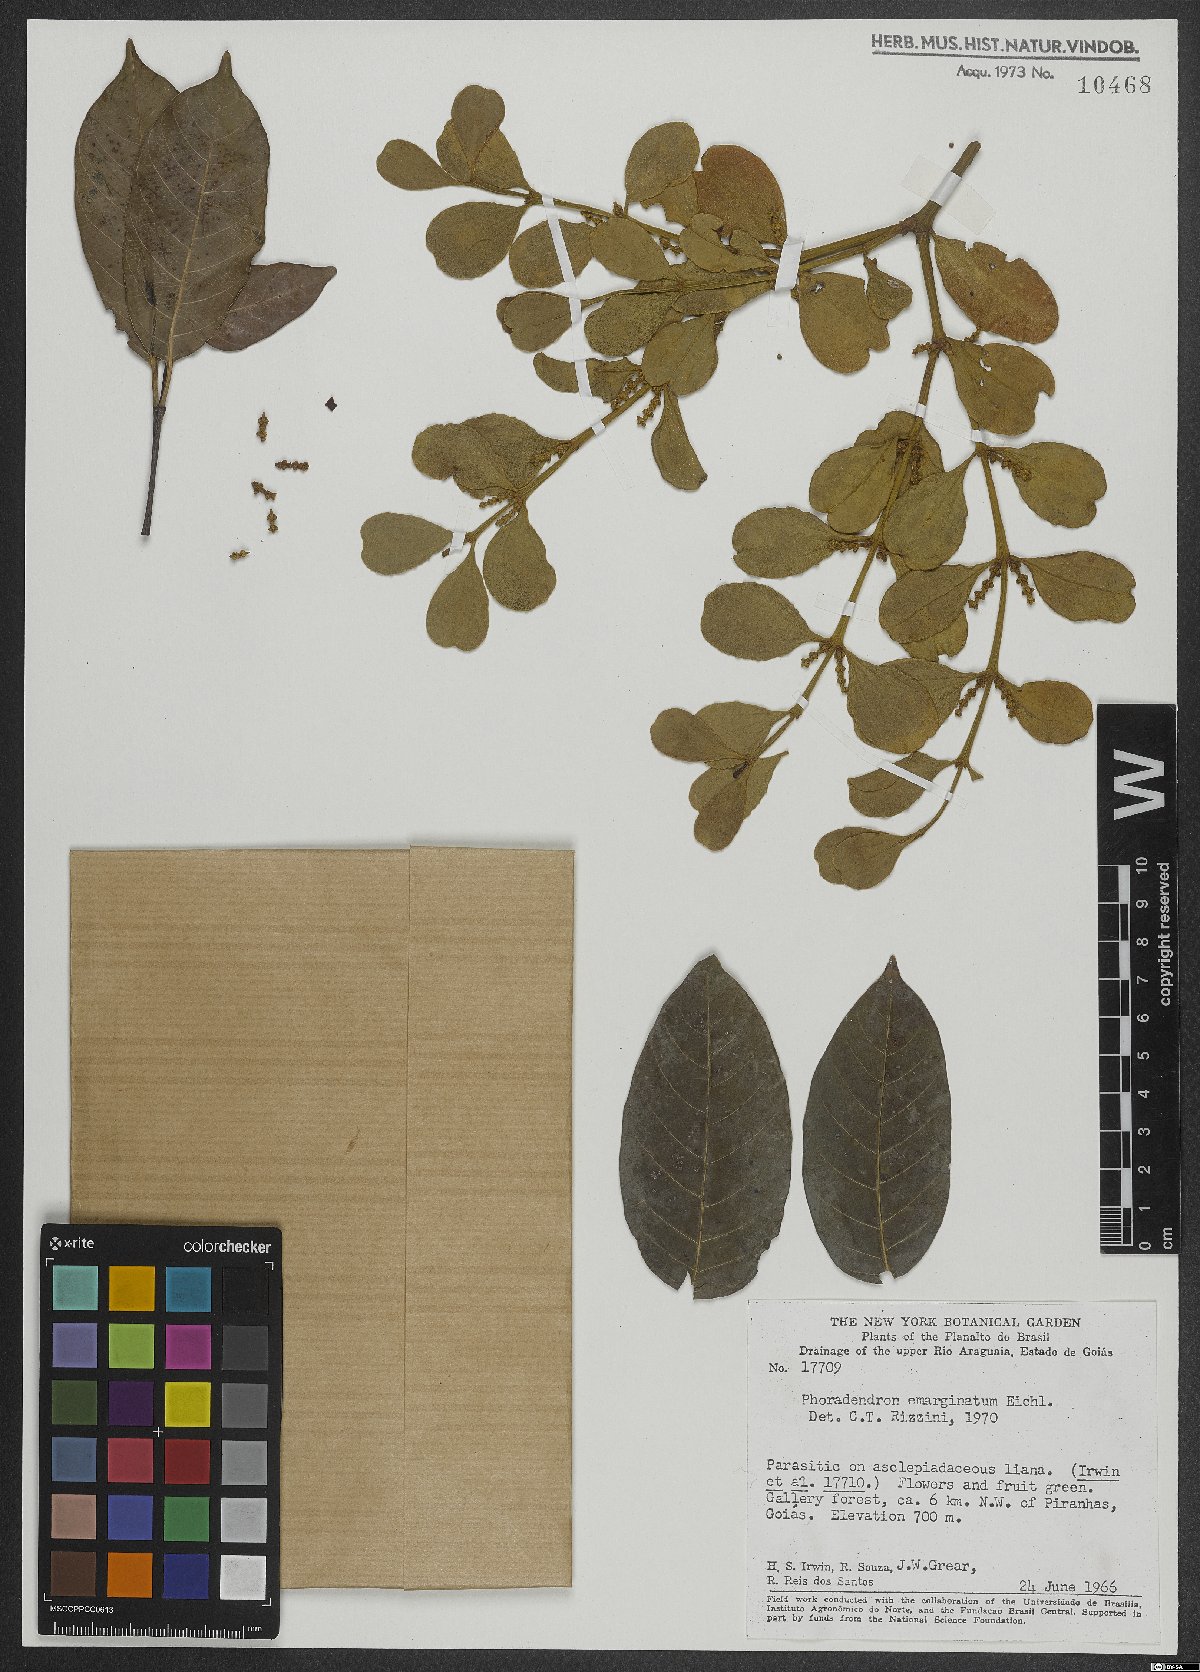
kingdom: Plantae
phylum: Tracheophyta
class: Magnoliopsida
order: Santalales
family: Viscaceae
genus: Phoradendron
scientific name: Phoradendron mucronatum
